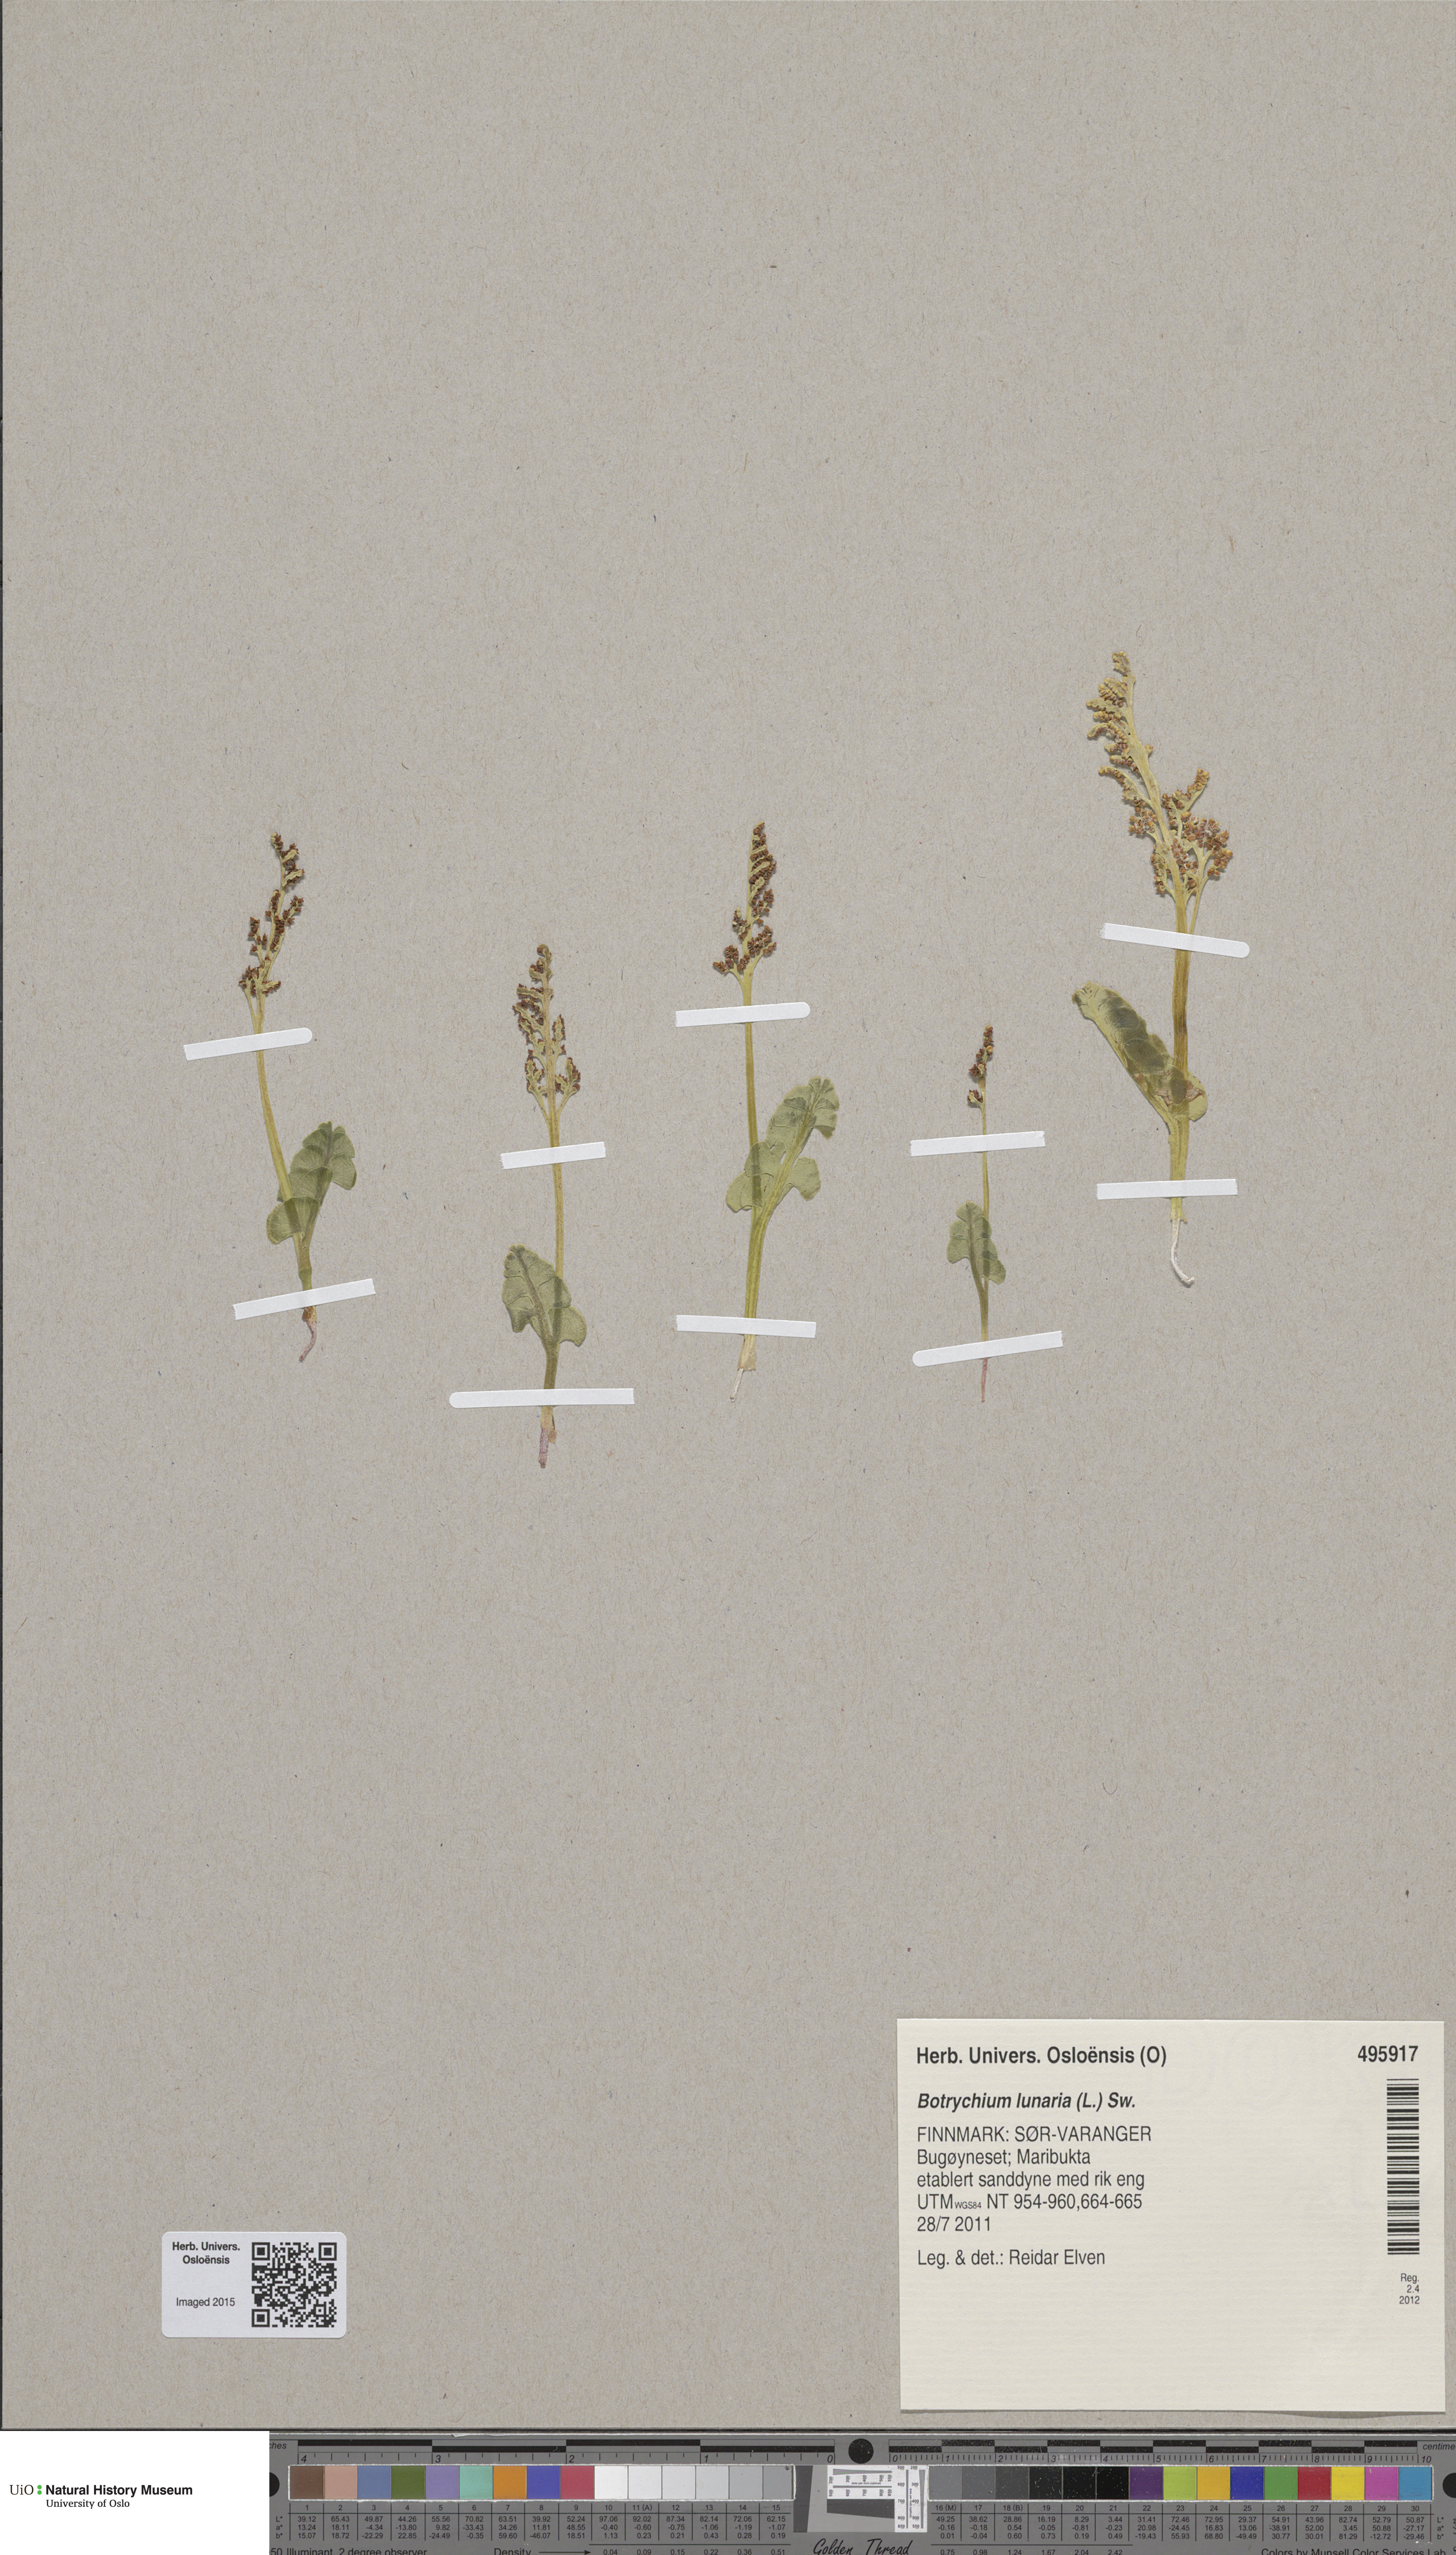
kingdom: Plantae
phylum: Tracheophyta
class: Polypodiopsida
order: Ophioglossales
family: Ophioglossaceae
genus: Botrychium
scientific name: Botrychium lunaria
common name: Moonwort
